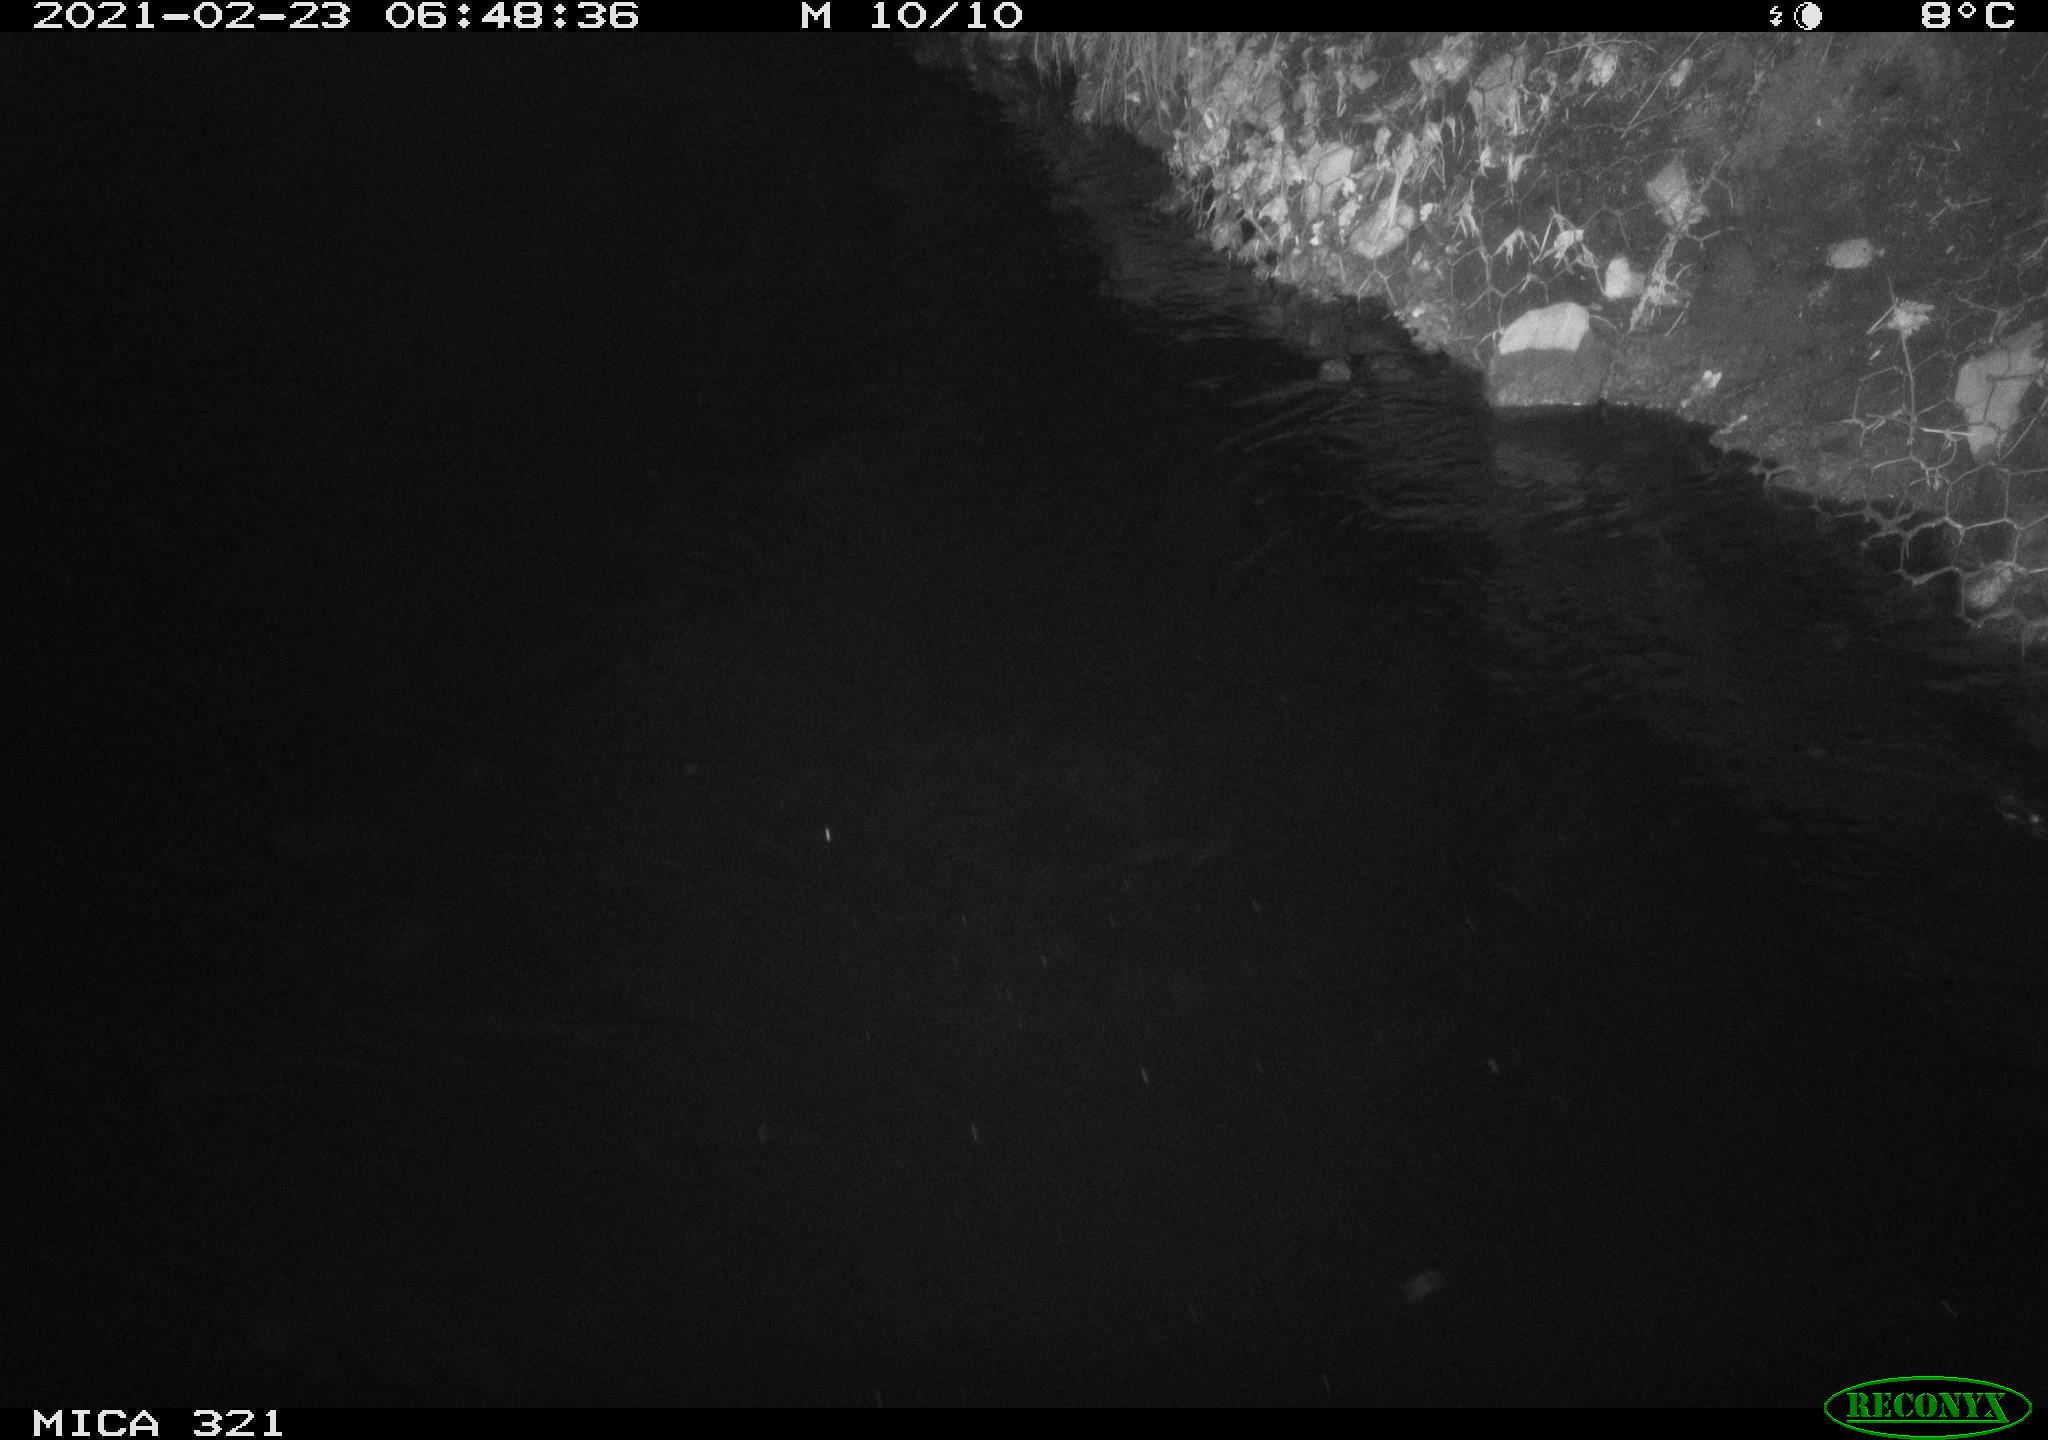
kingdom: Animalia
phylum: Chordata
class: Aves
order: Anseriformes
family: Anatidae
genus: Anas
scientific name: Anas platyrhynchos
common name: Mallard
